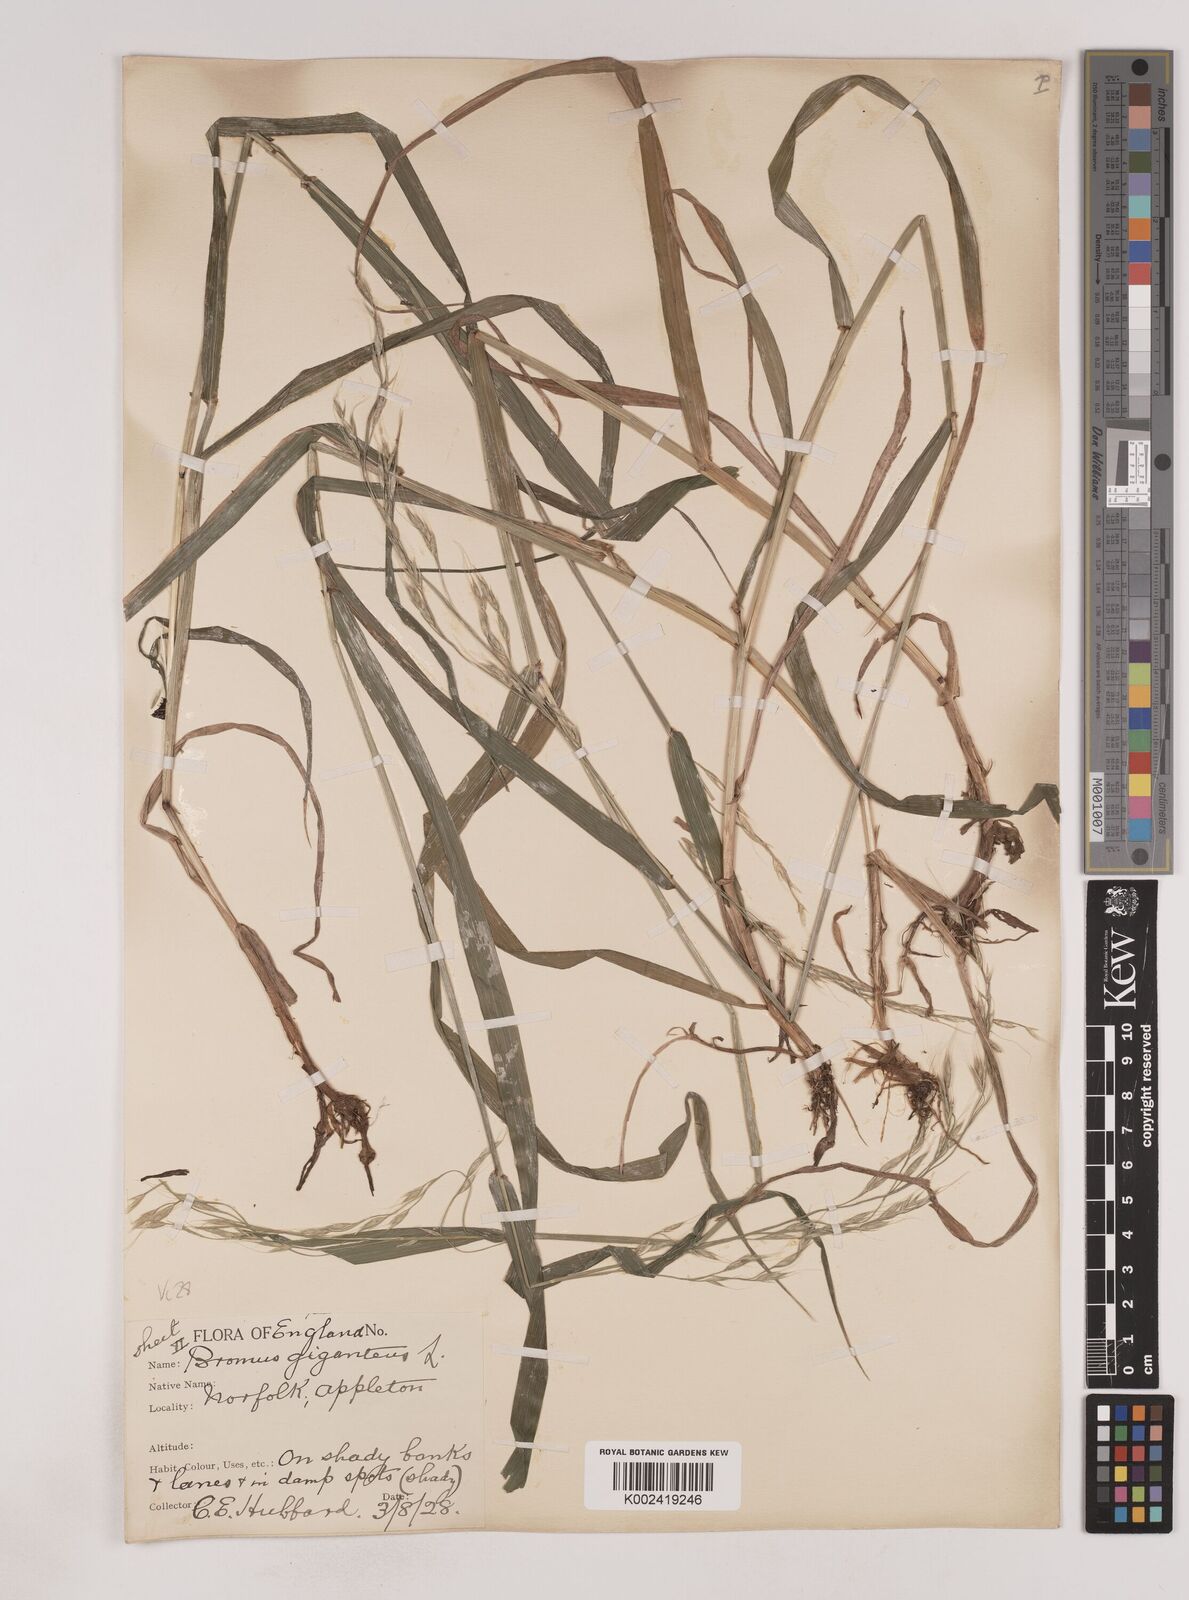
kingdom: Plantae
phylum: Tracheophyta
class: Liliopsida
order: Poales
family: Poaceae
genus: Lolium
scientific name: Lolium giganteum
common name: Giant fescue
